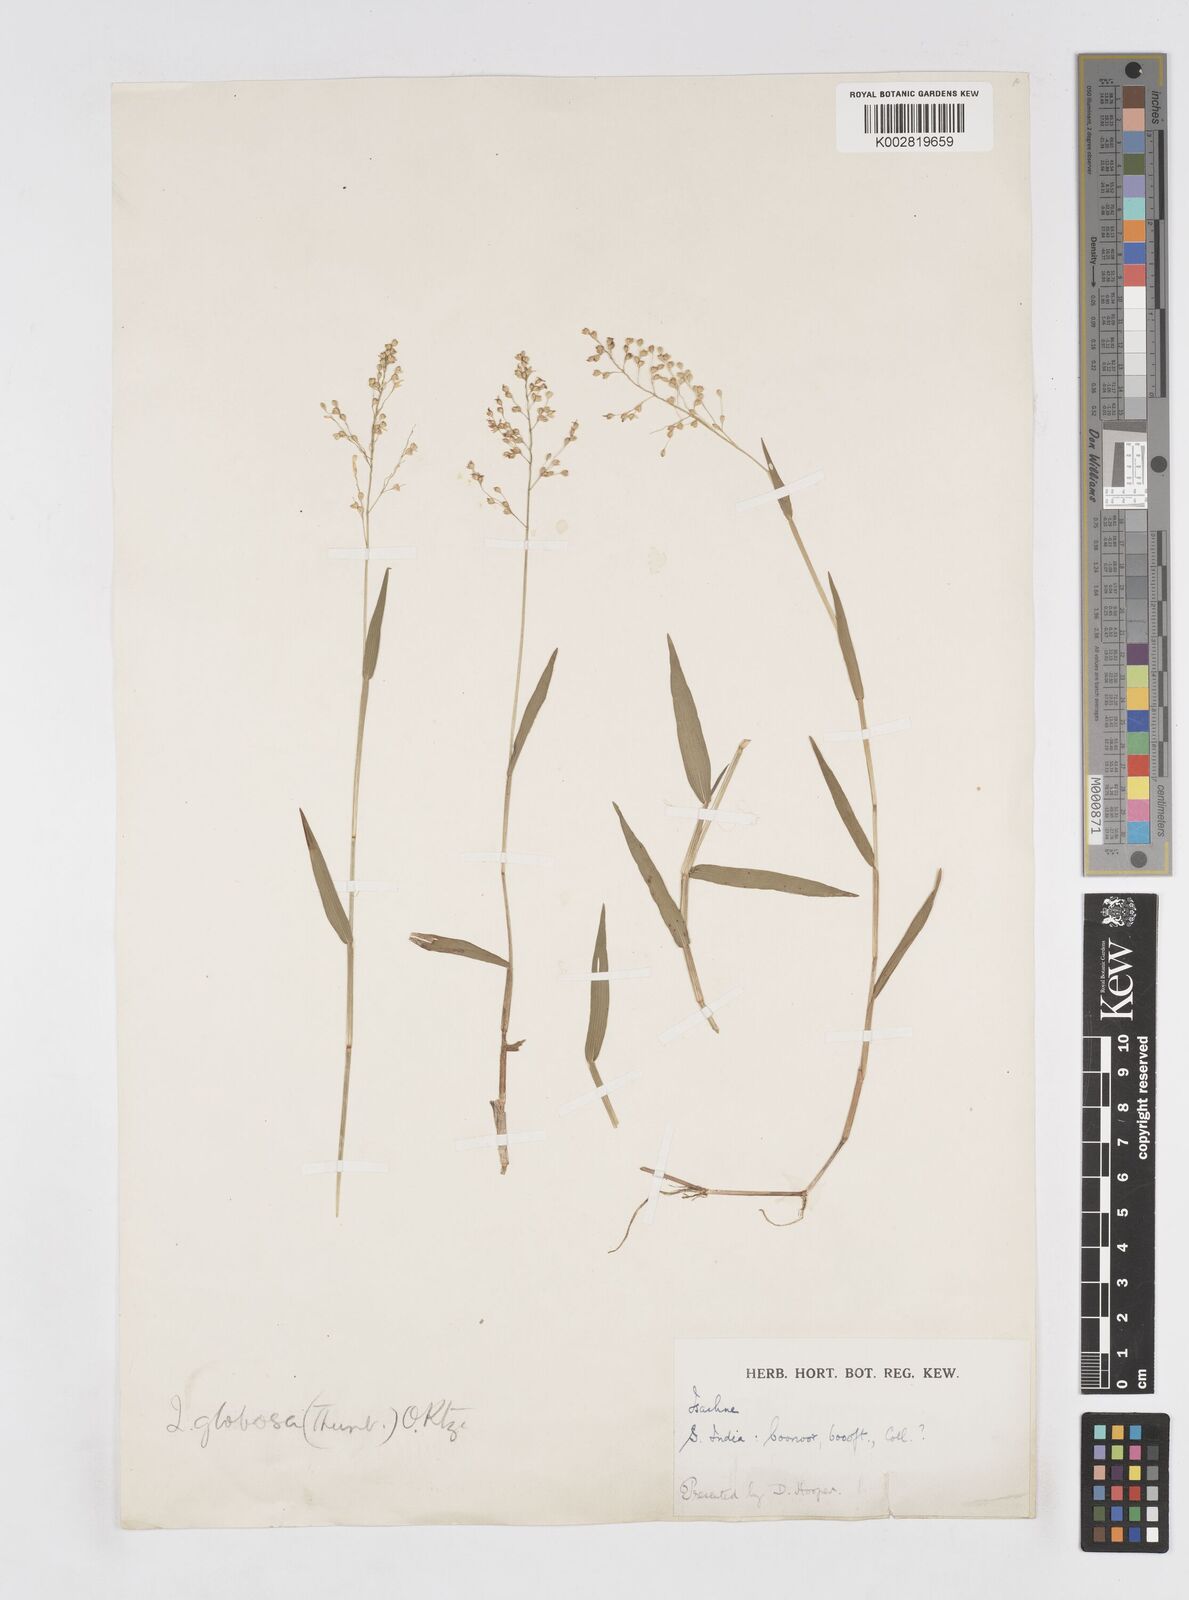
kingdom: Plantae
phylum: Tracheophyta
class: Liliopsida
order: Poales
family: Poaceae
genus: Isachne
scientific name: Isachne globosa
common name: Swamp millet
